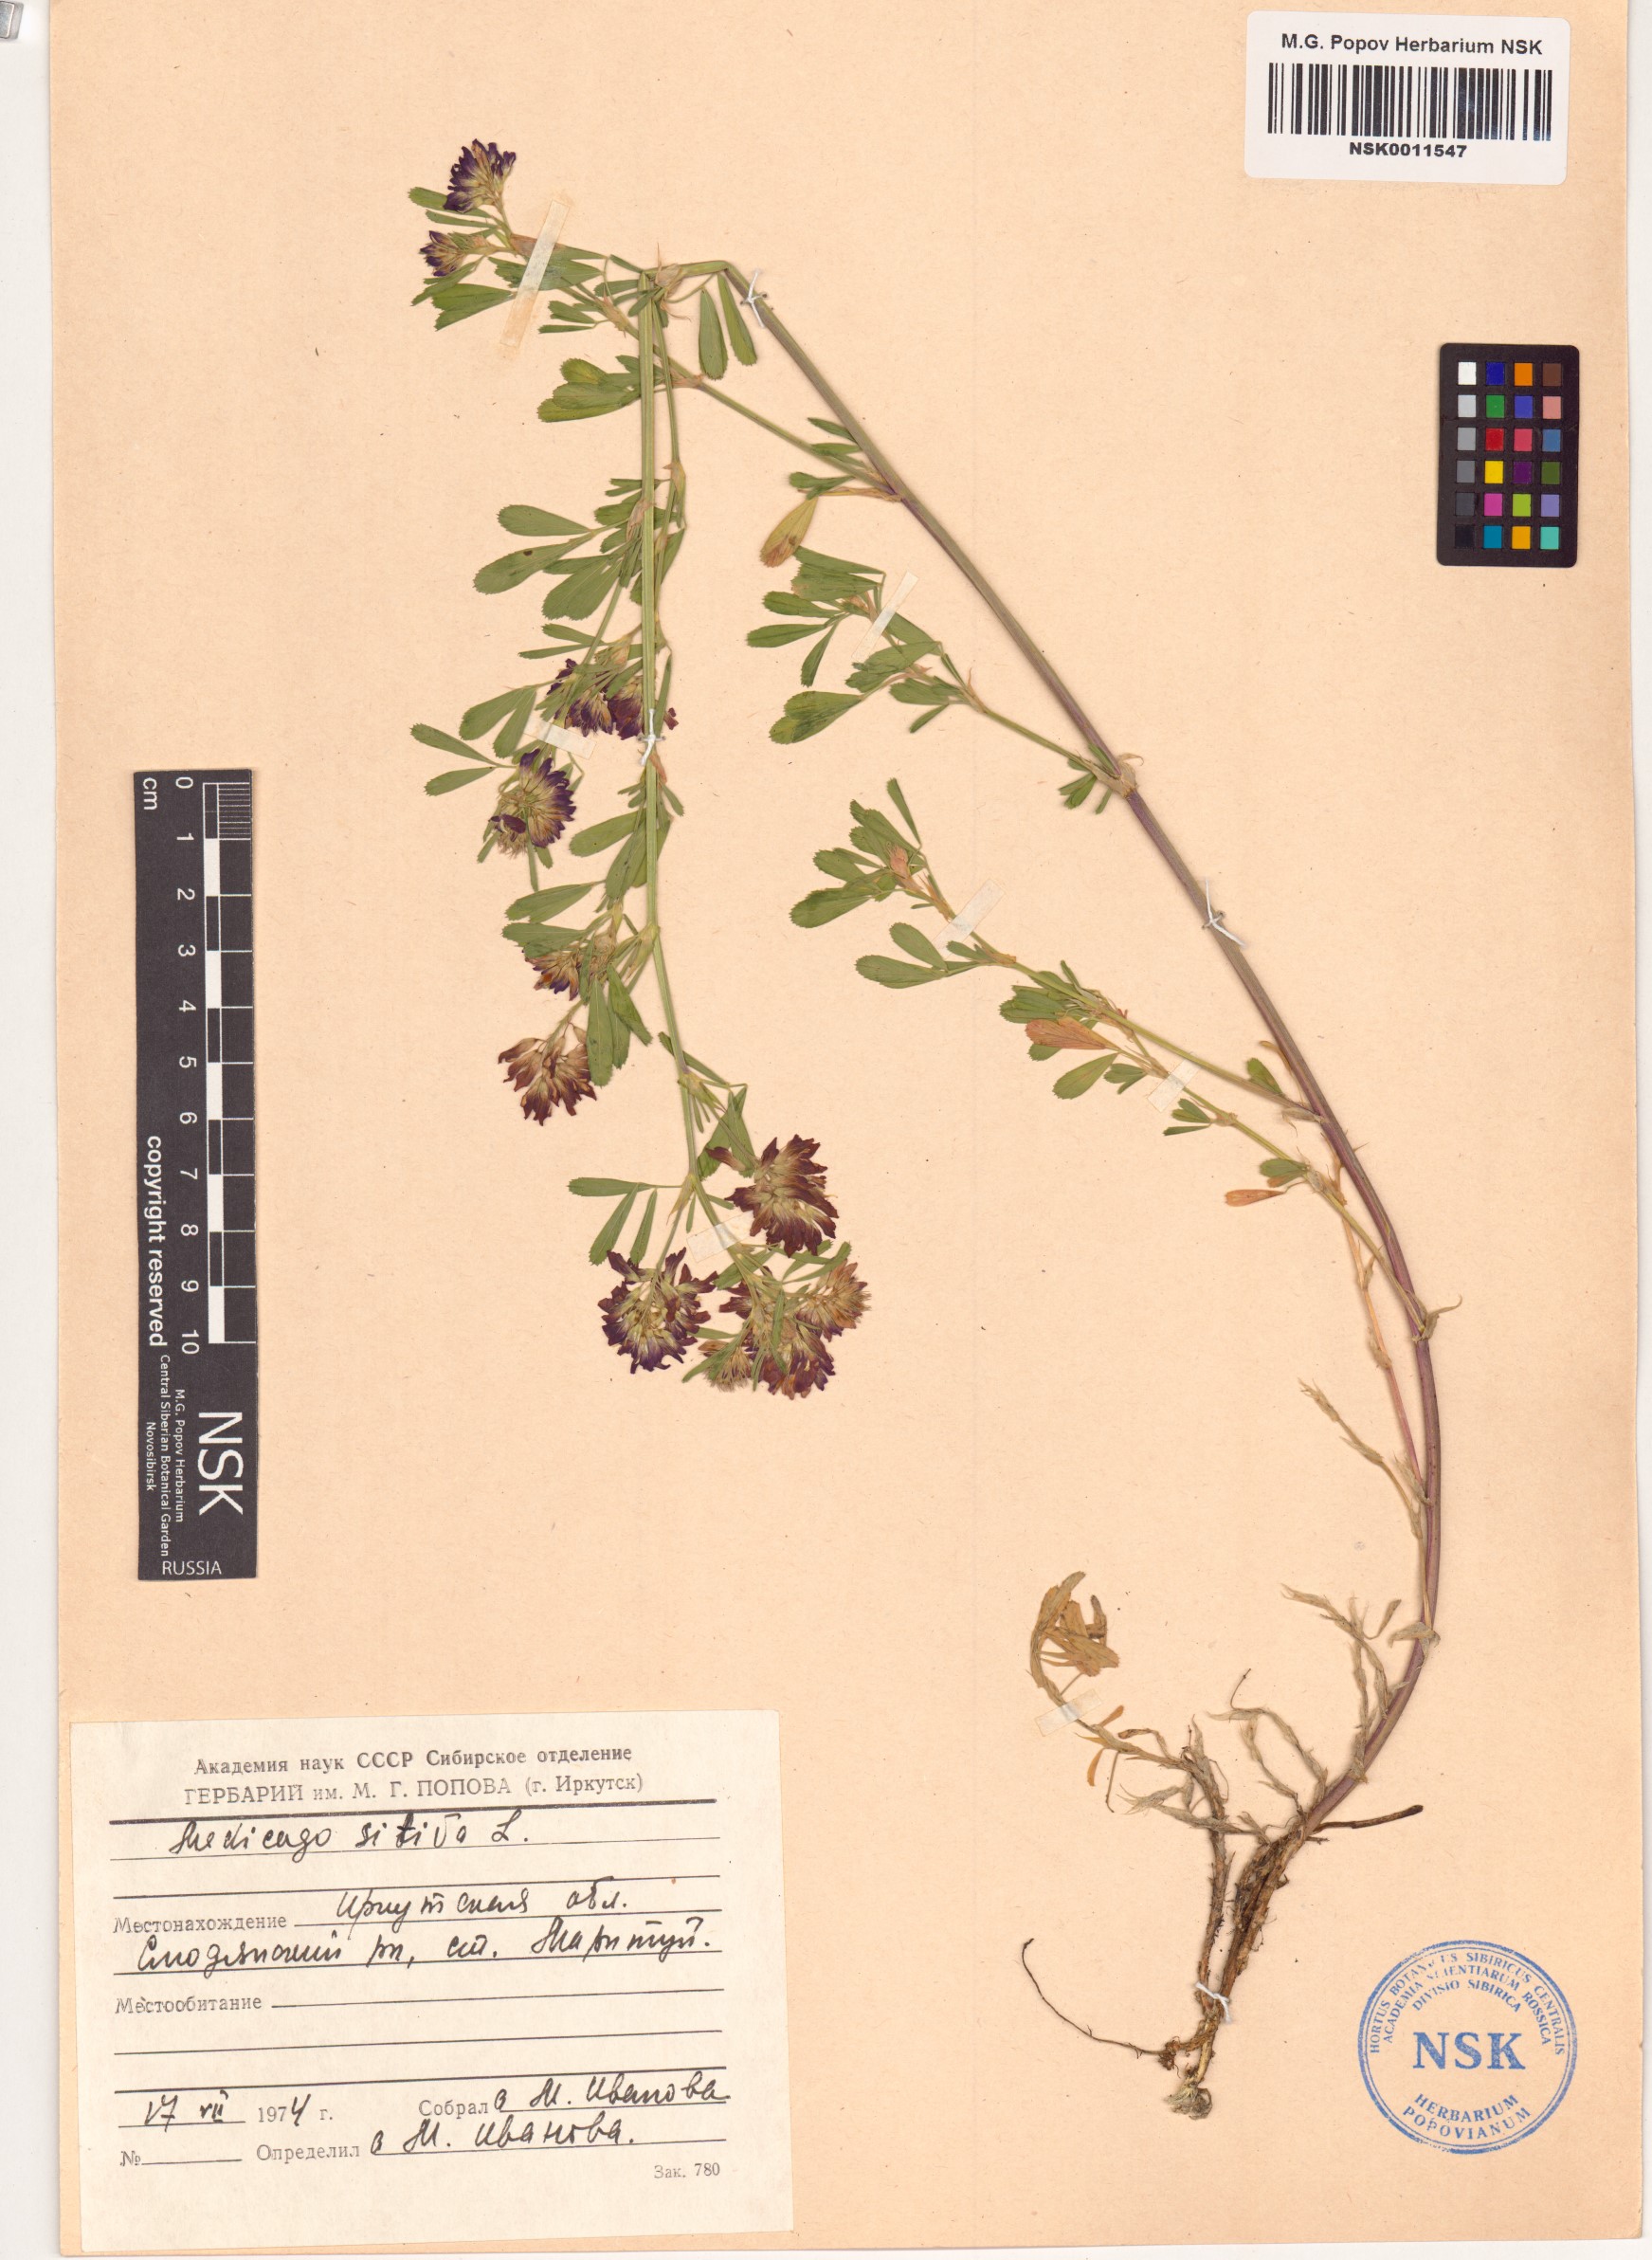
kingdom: Plantae
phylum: Tracheophyta
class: Magnoliopsida
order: Fabales
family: Fabaceae
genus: Medicago
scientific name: Medicago sativa
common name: Alfalfa
